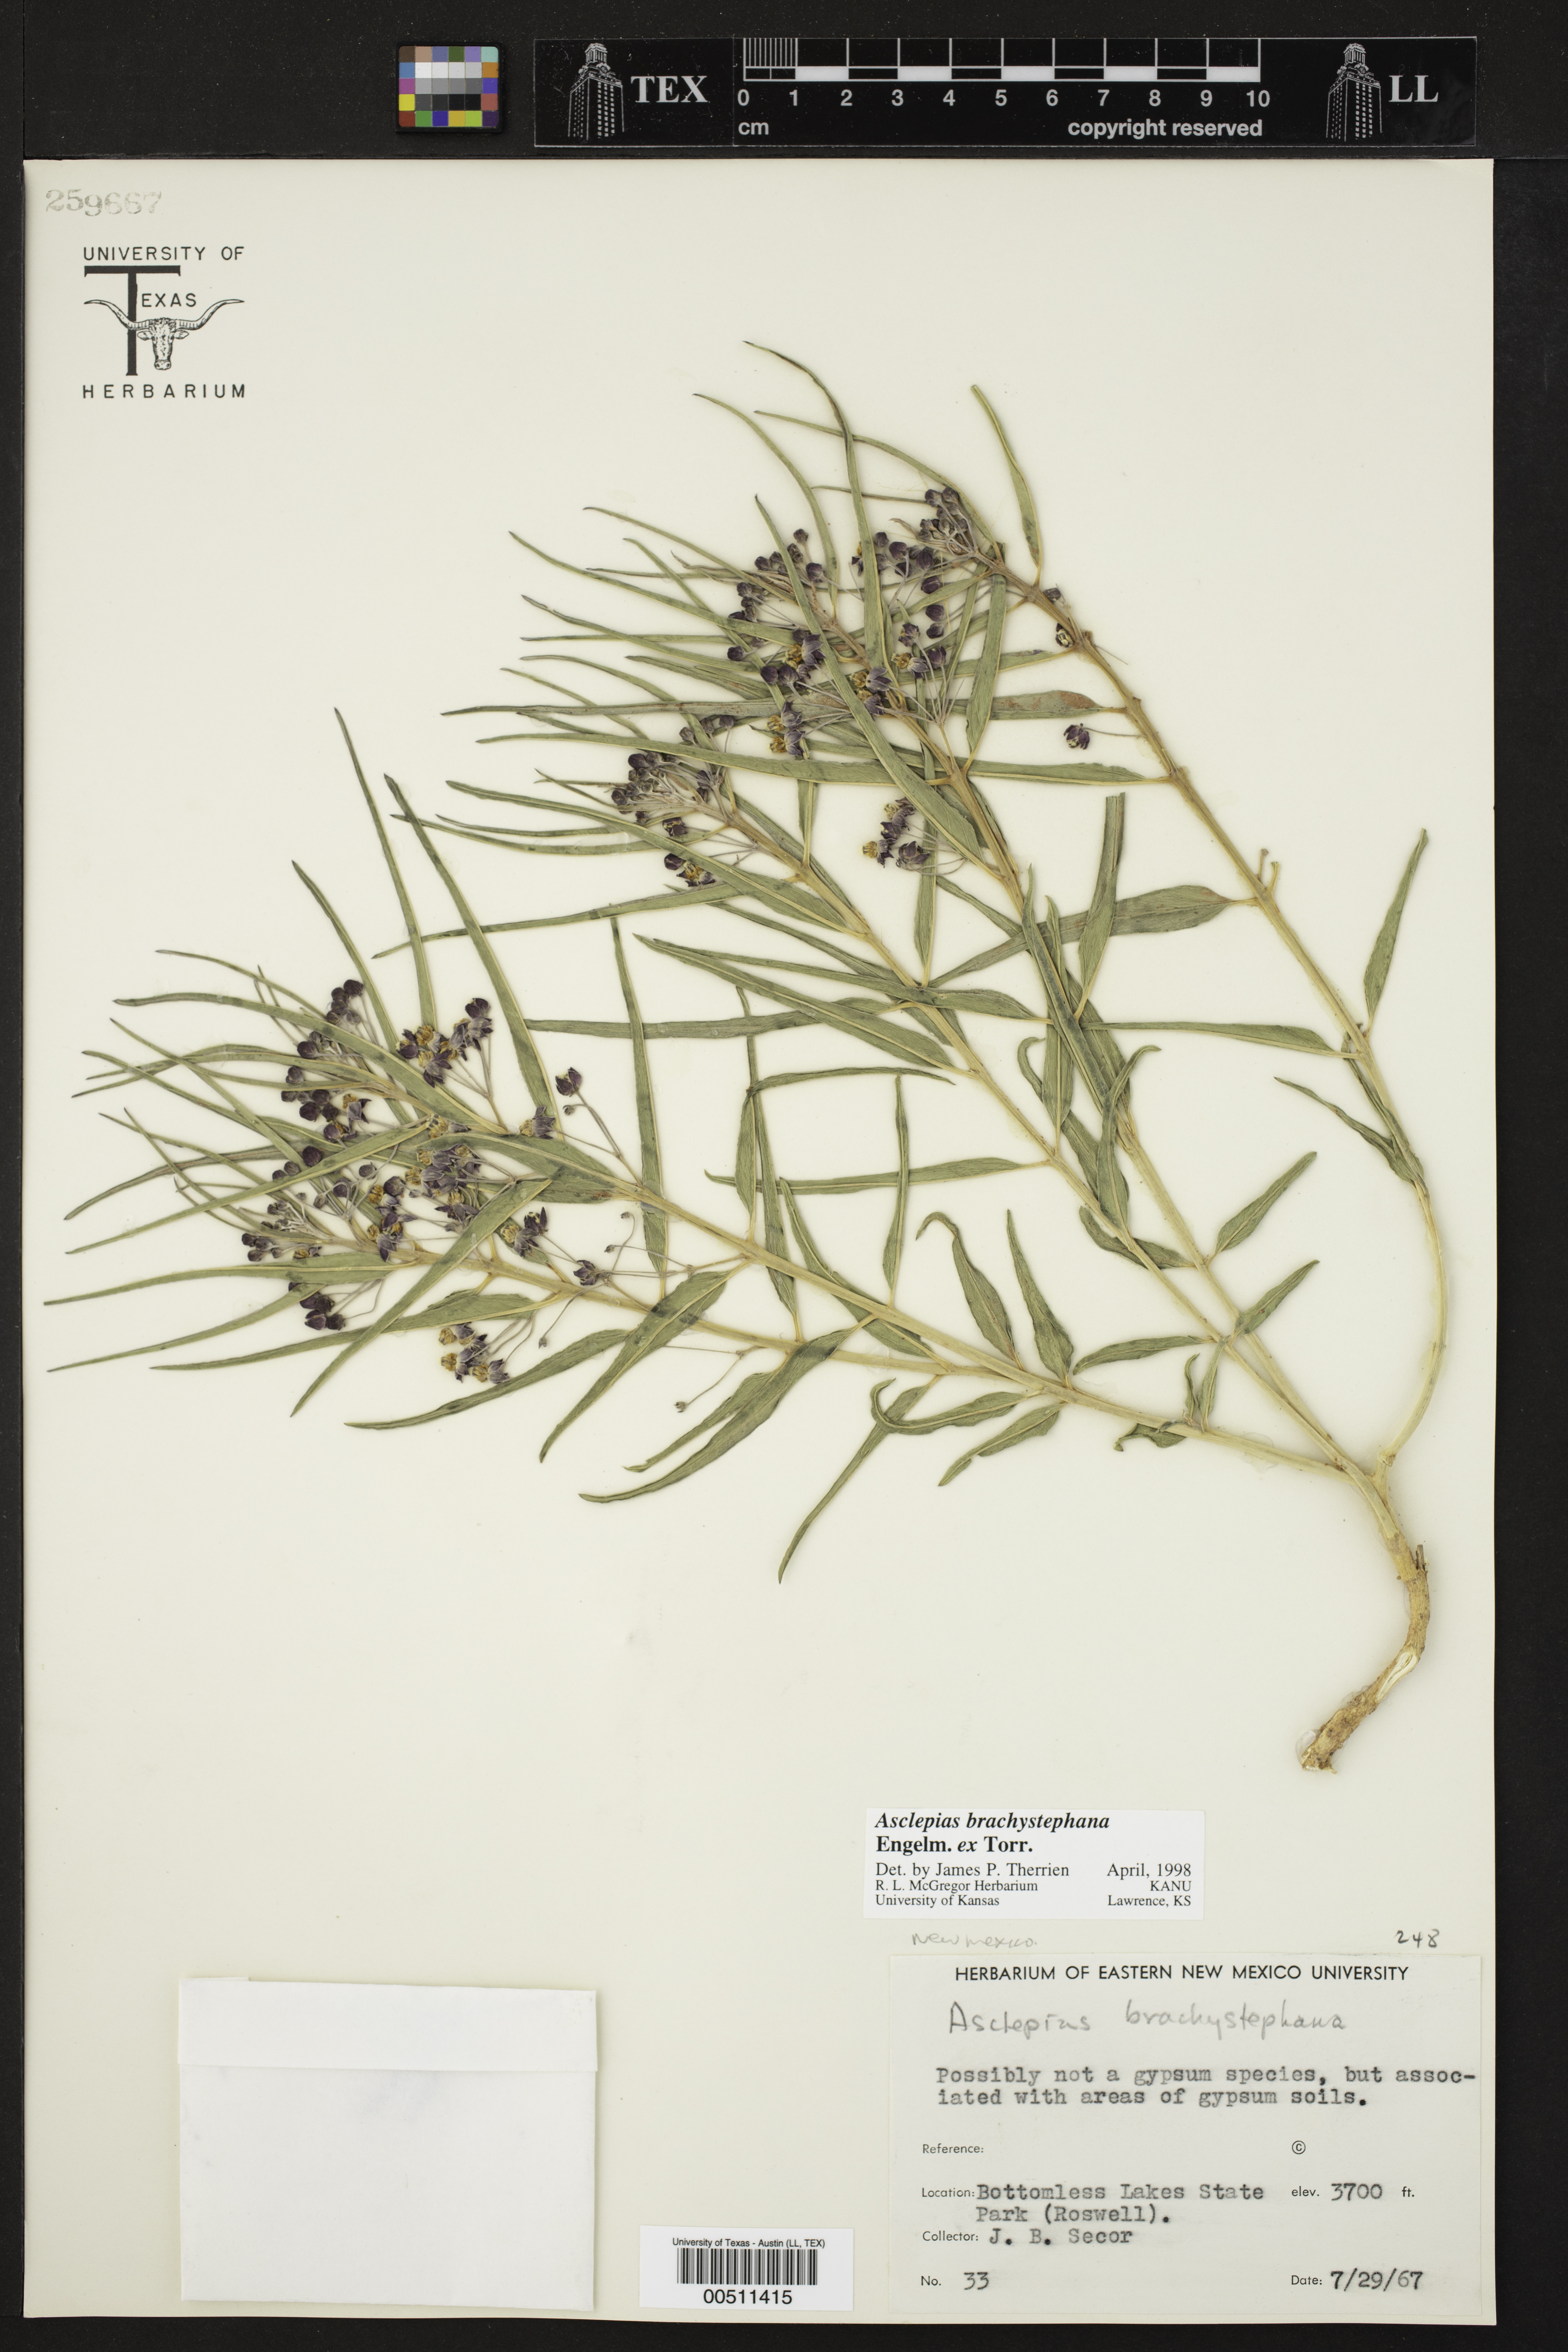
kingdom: Plantae
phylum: Tracheophyta
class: Magnoliopsida
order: Gentianales
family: Apocynaceae
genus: Asclepias
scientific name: Asclepias brachystephana
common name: Shortcrown milkweed
